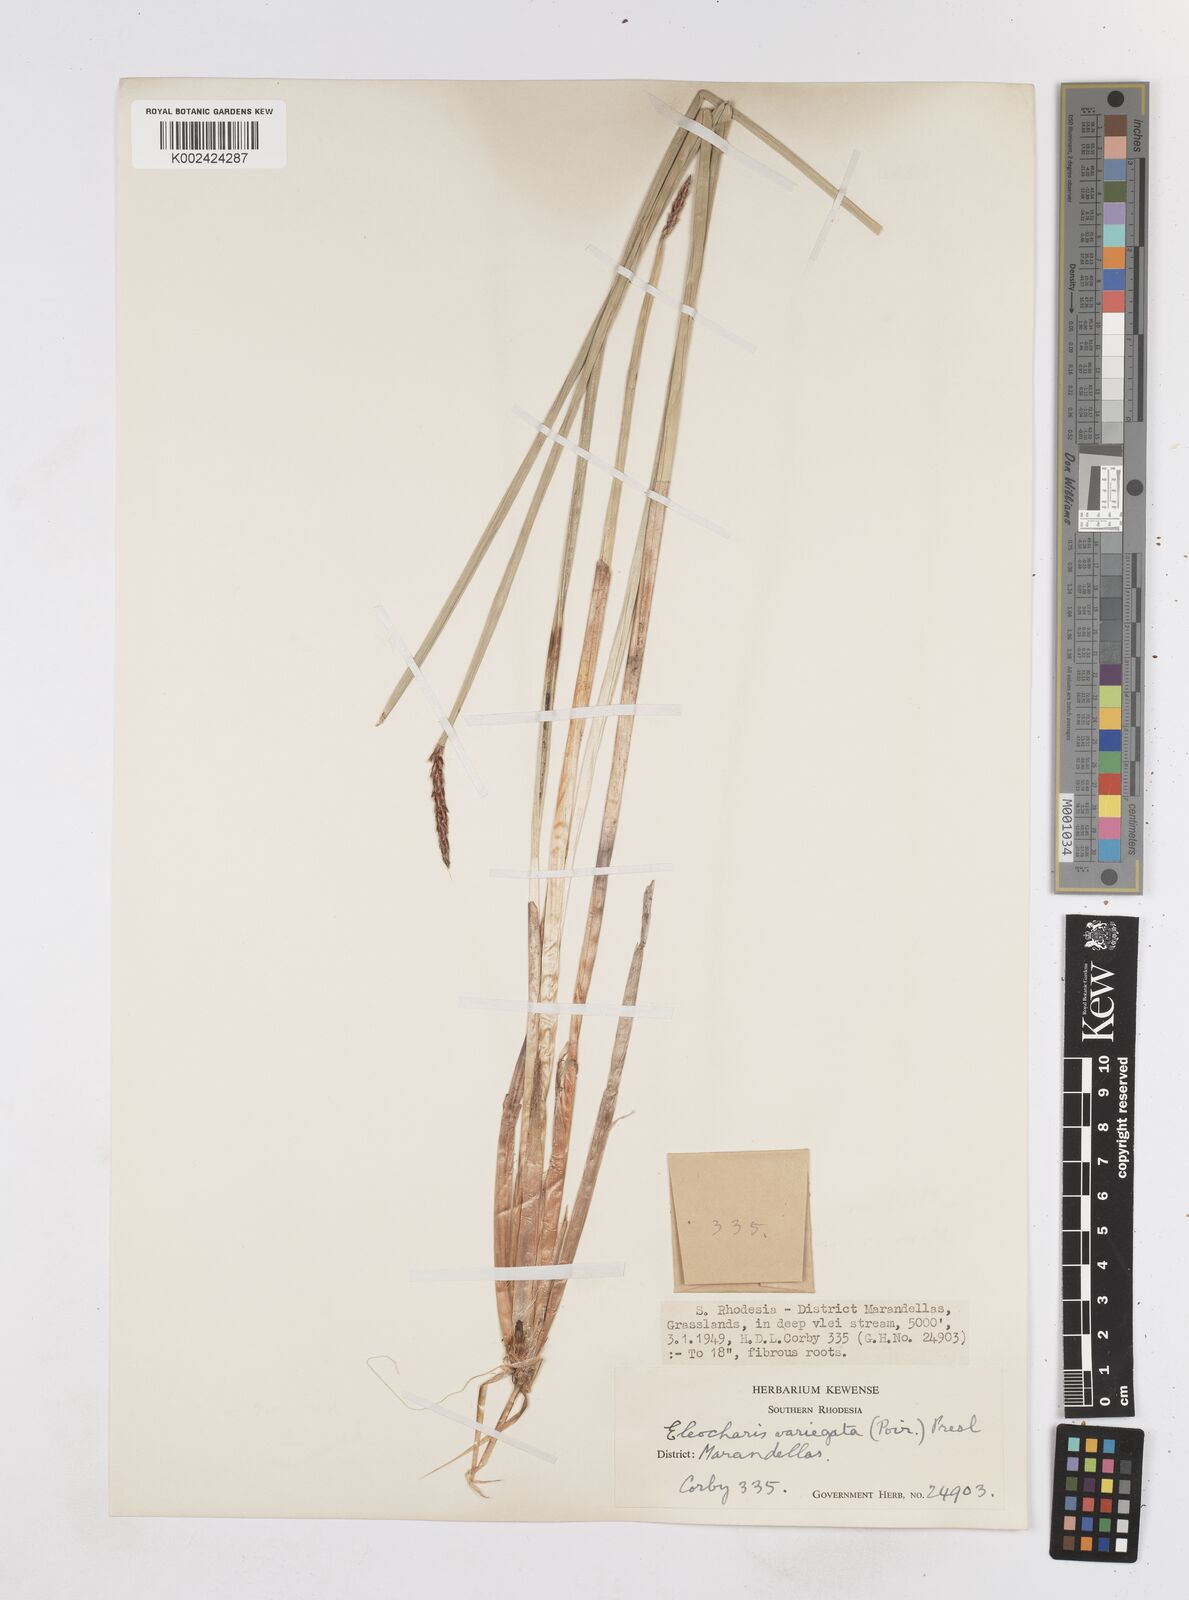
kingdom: Plantae
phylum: Tracheophyta
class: Liliopsida
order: Poales
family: Cyperaceae
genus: Eleocharis
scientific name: Eleocharis variegata
